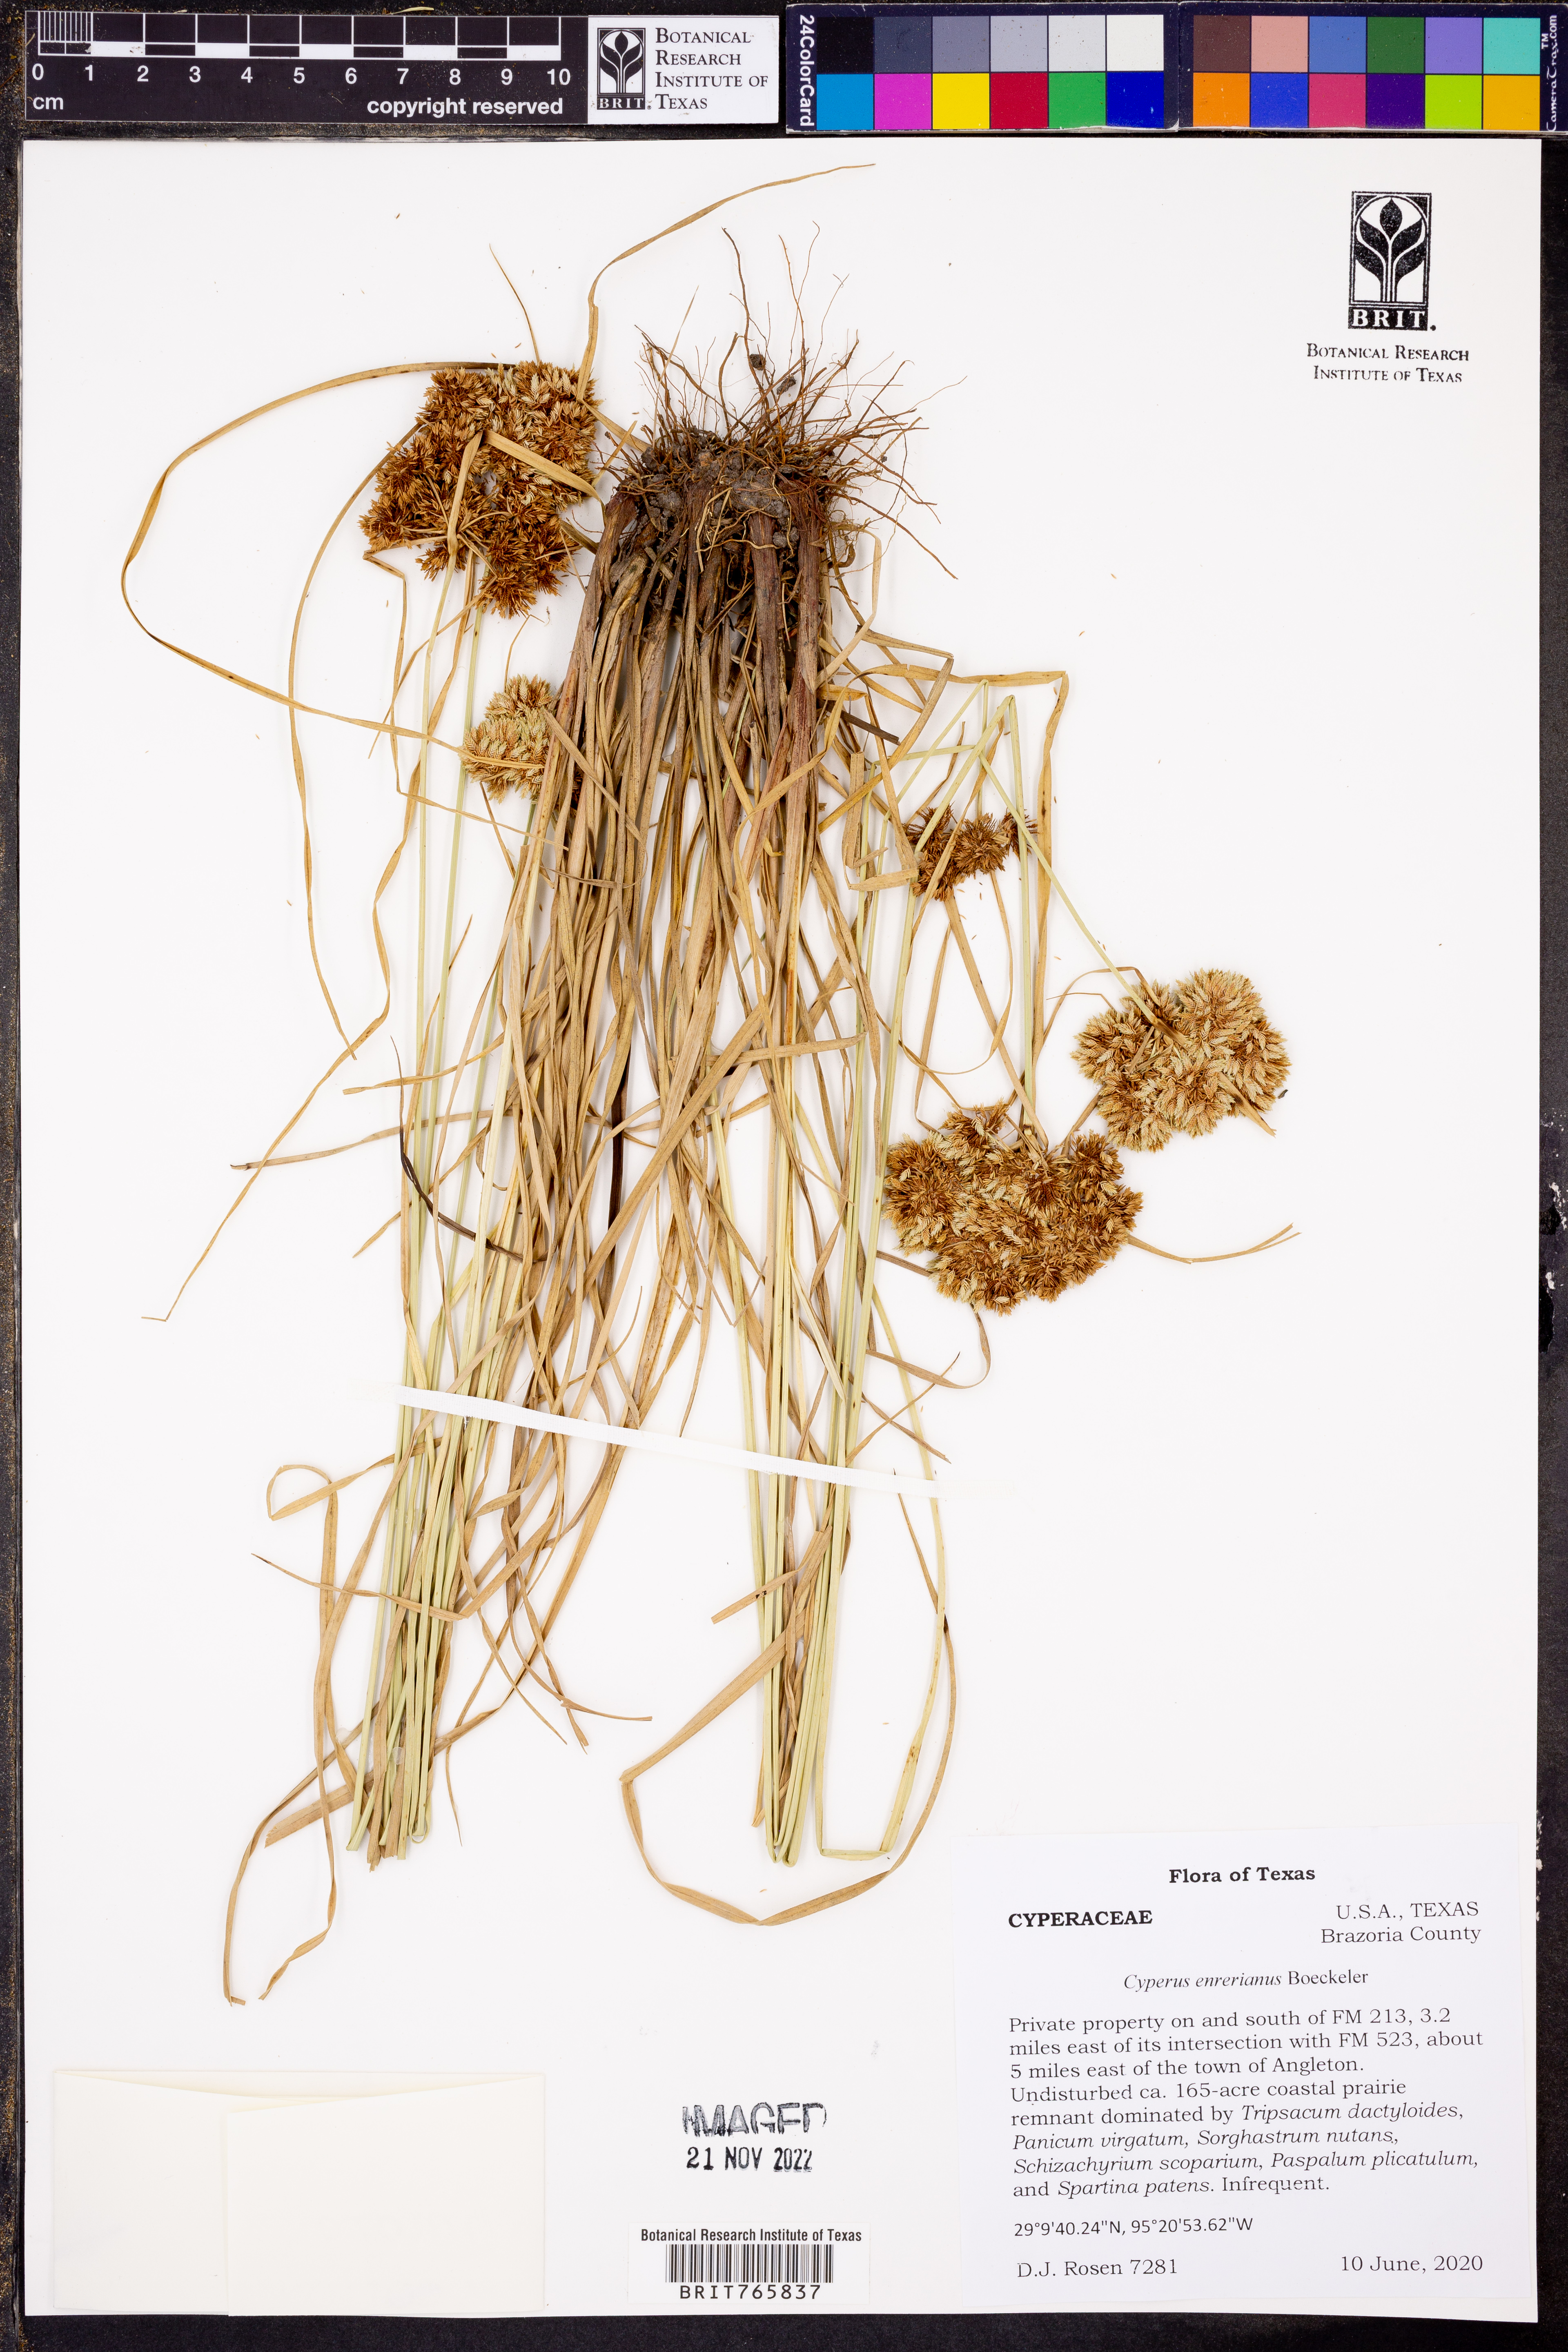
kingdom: Plantae
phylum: Tracheophyta
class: Liliopsida
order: Poales
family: Cyperaceae
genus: Cyperus
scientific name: Cyperus entrerianus
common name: Woodrush flatsedge
